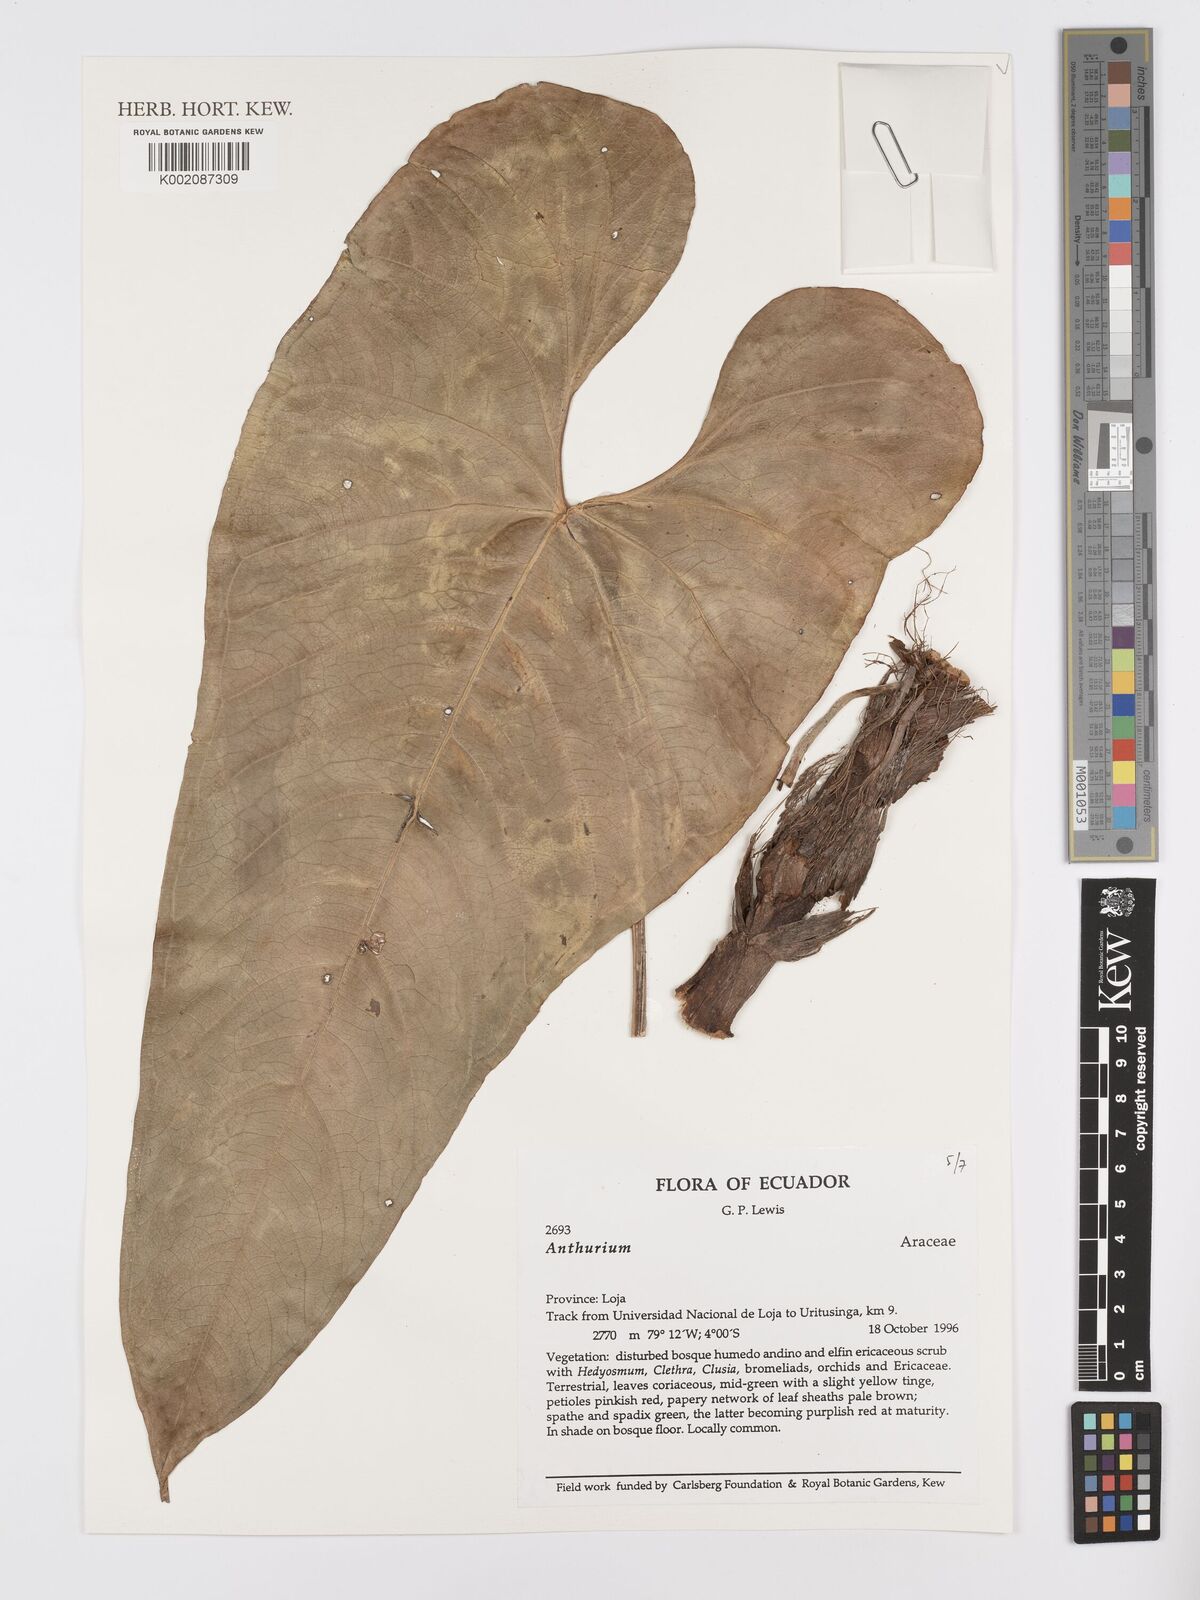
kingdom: Plantae
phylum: Tracheophyta
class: Liliopsida
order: Alismatales
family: Araceae
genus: Anthurium
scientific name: Anthurium
